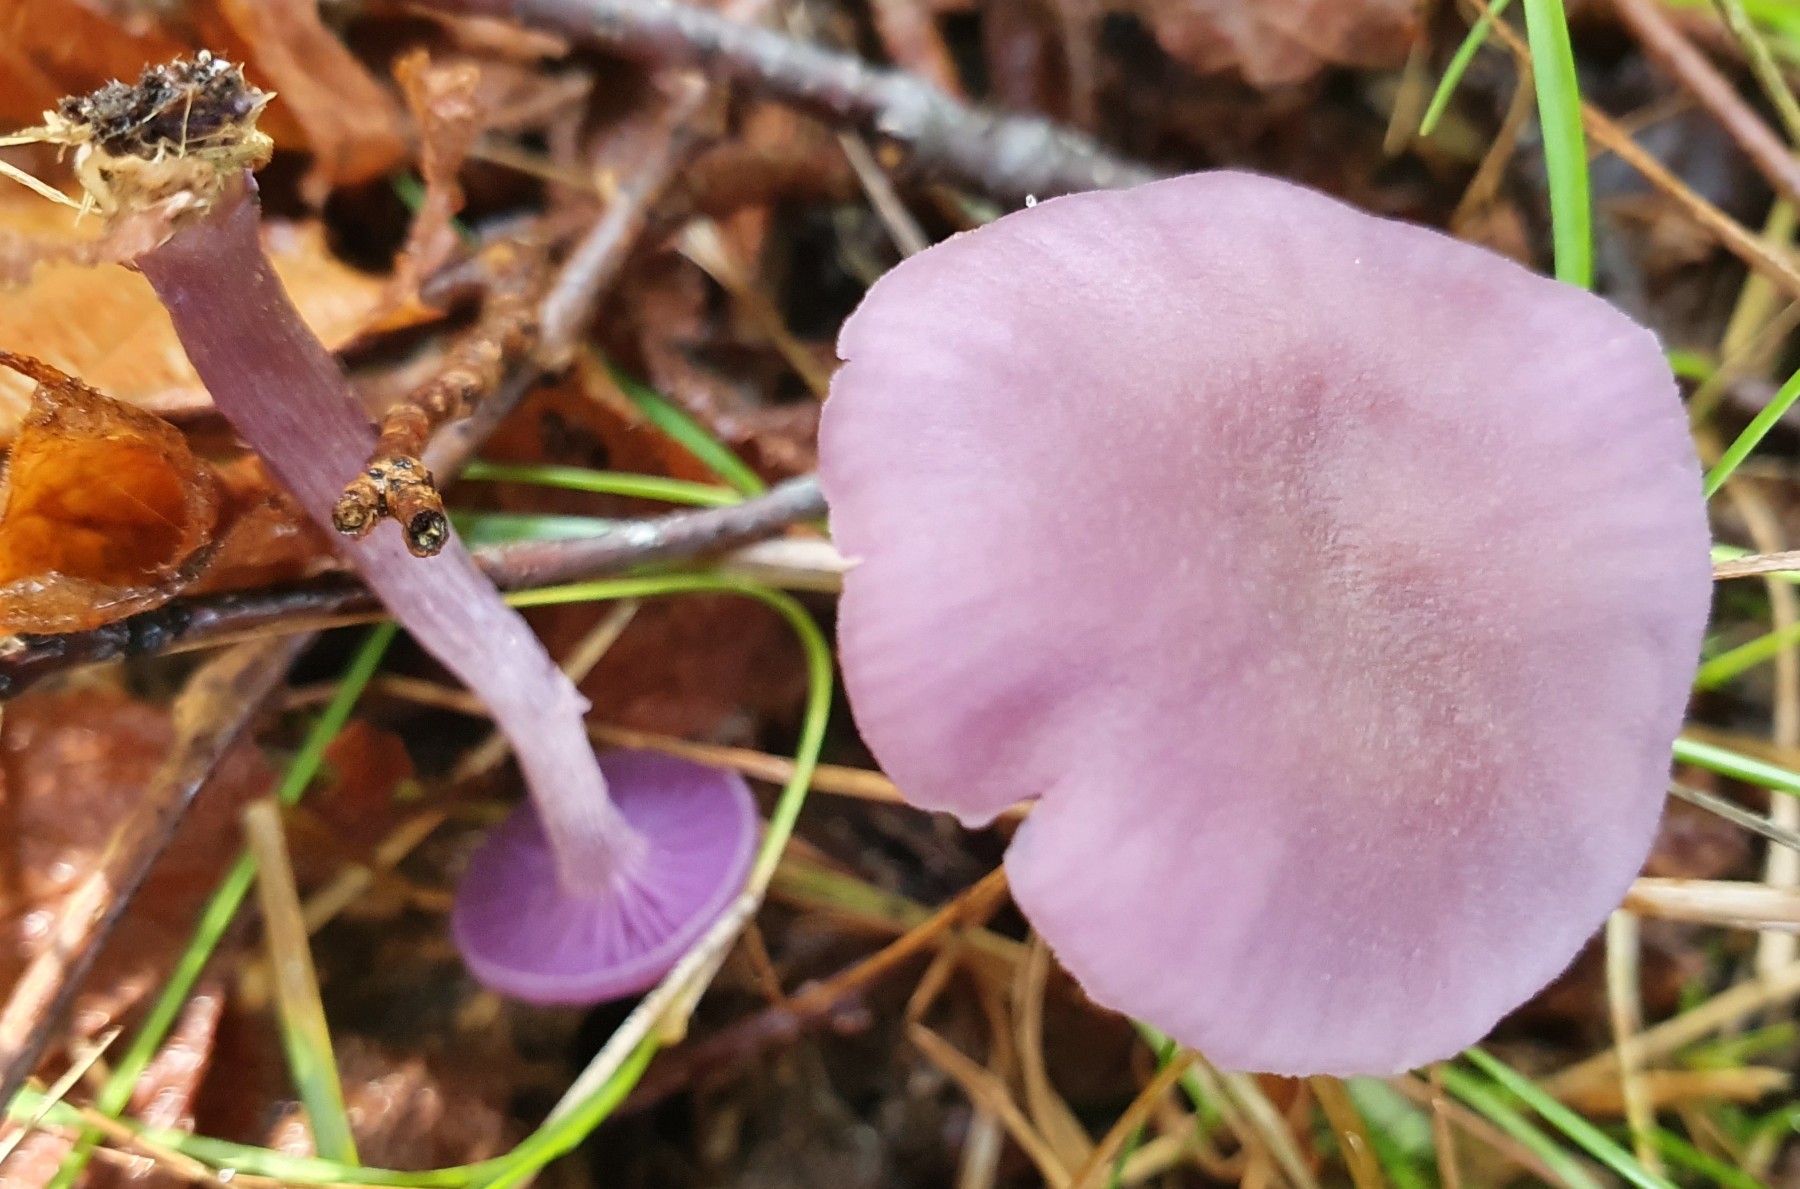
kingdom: Fungi
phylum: Basidiomycota
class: Agaricomycetes
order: Agaricales
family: Hydnangiaceae
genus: Laccaria
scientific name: Laccaria amethystina
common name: violet ametysthat
